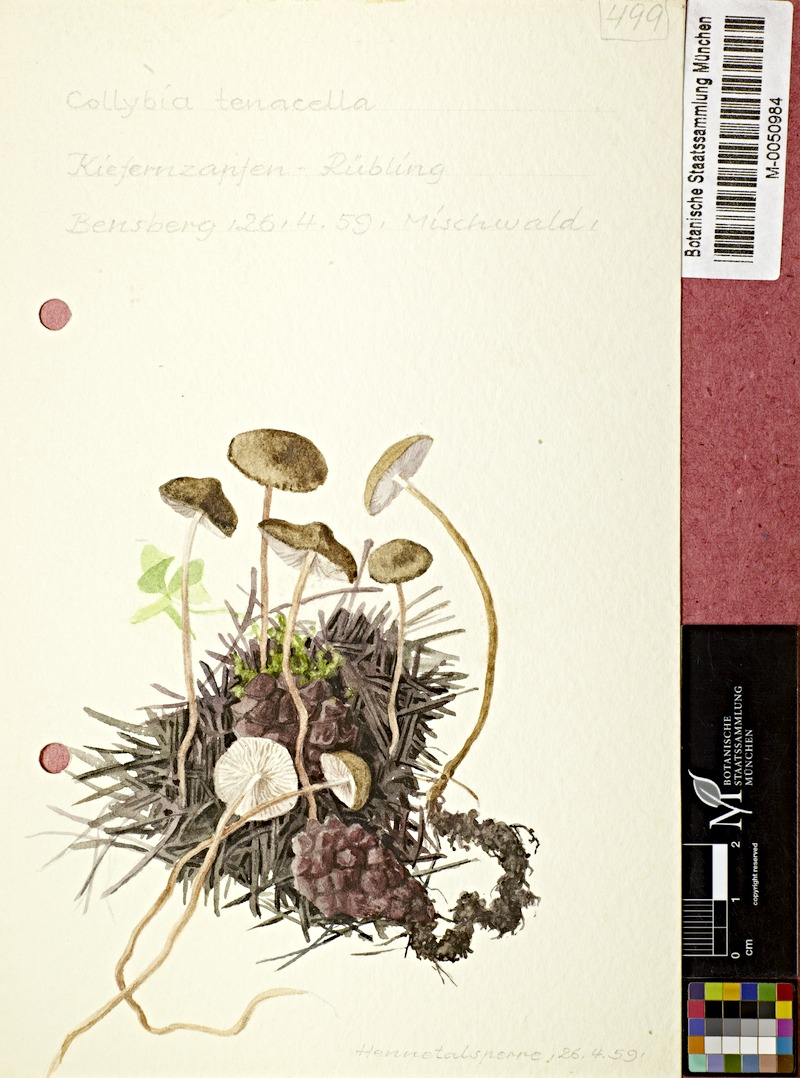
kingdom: Fungi
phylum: Basidiomycota
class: Agaricomycetes
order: Agaricales
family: Physalacriaceae
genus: Strobilurus
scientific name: Strobilurus tenacellus
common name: Pinecone cap
